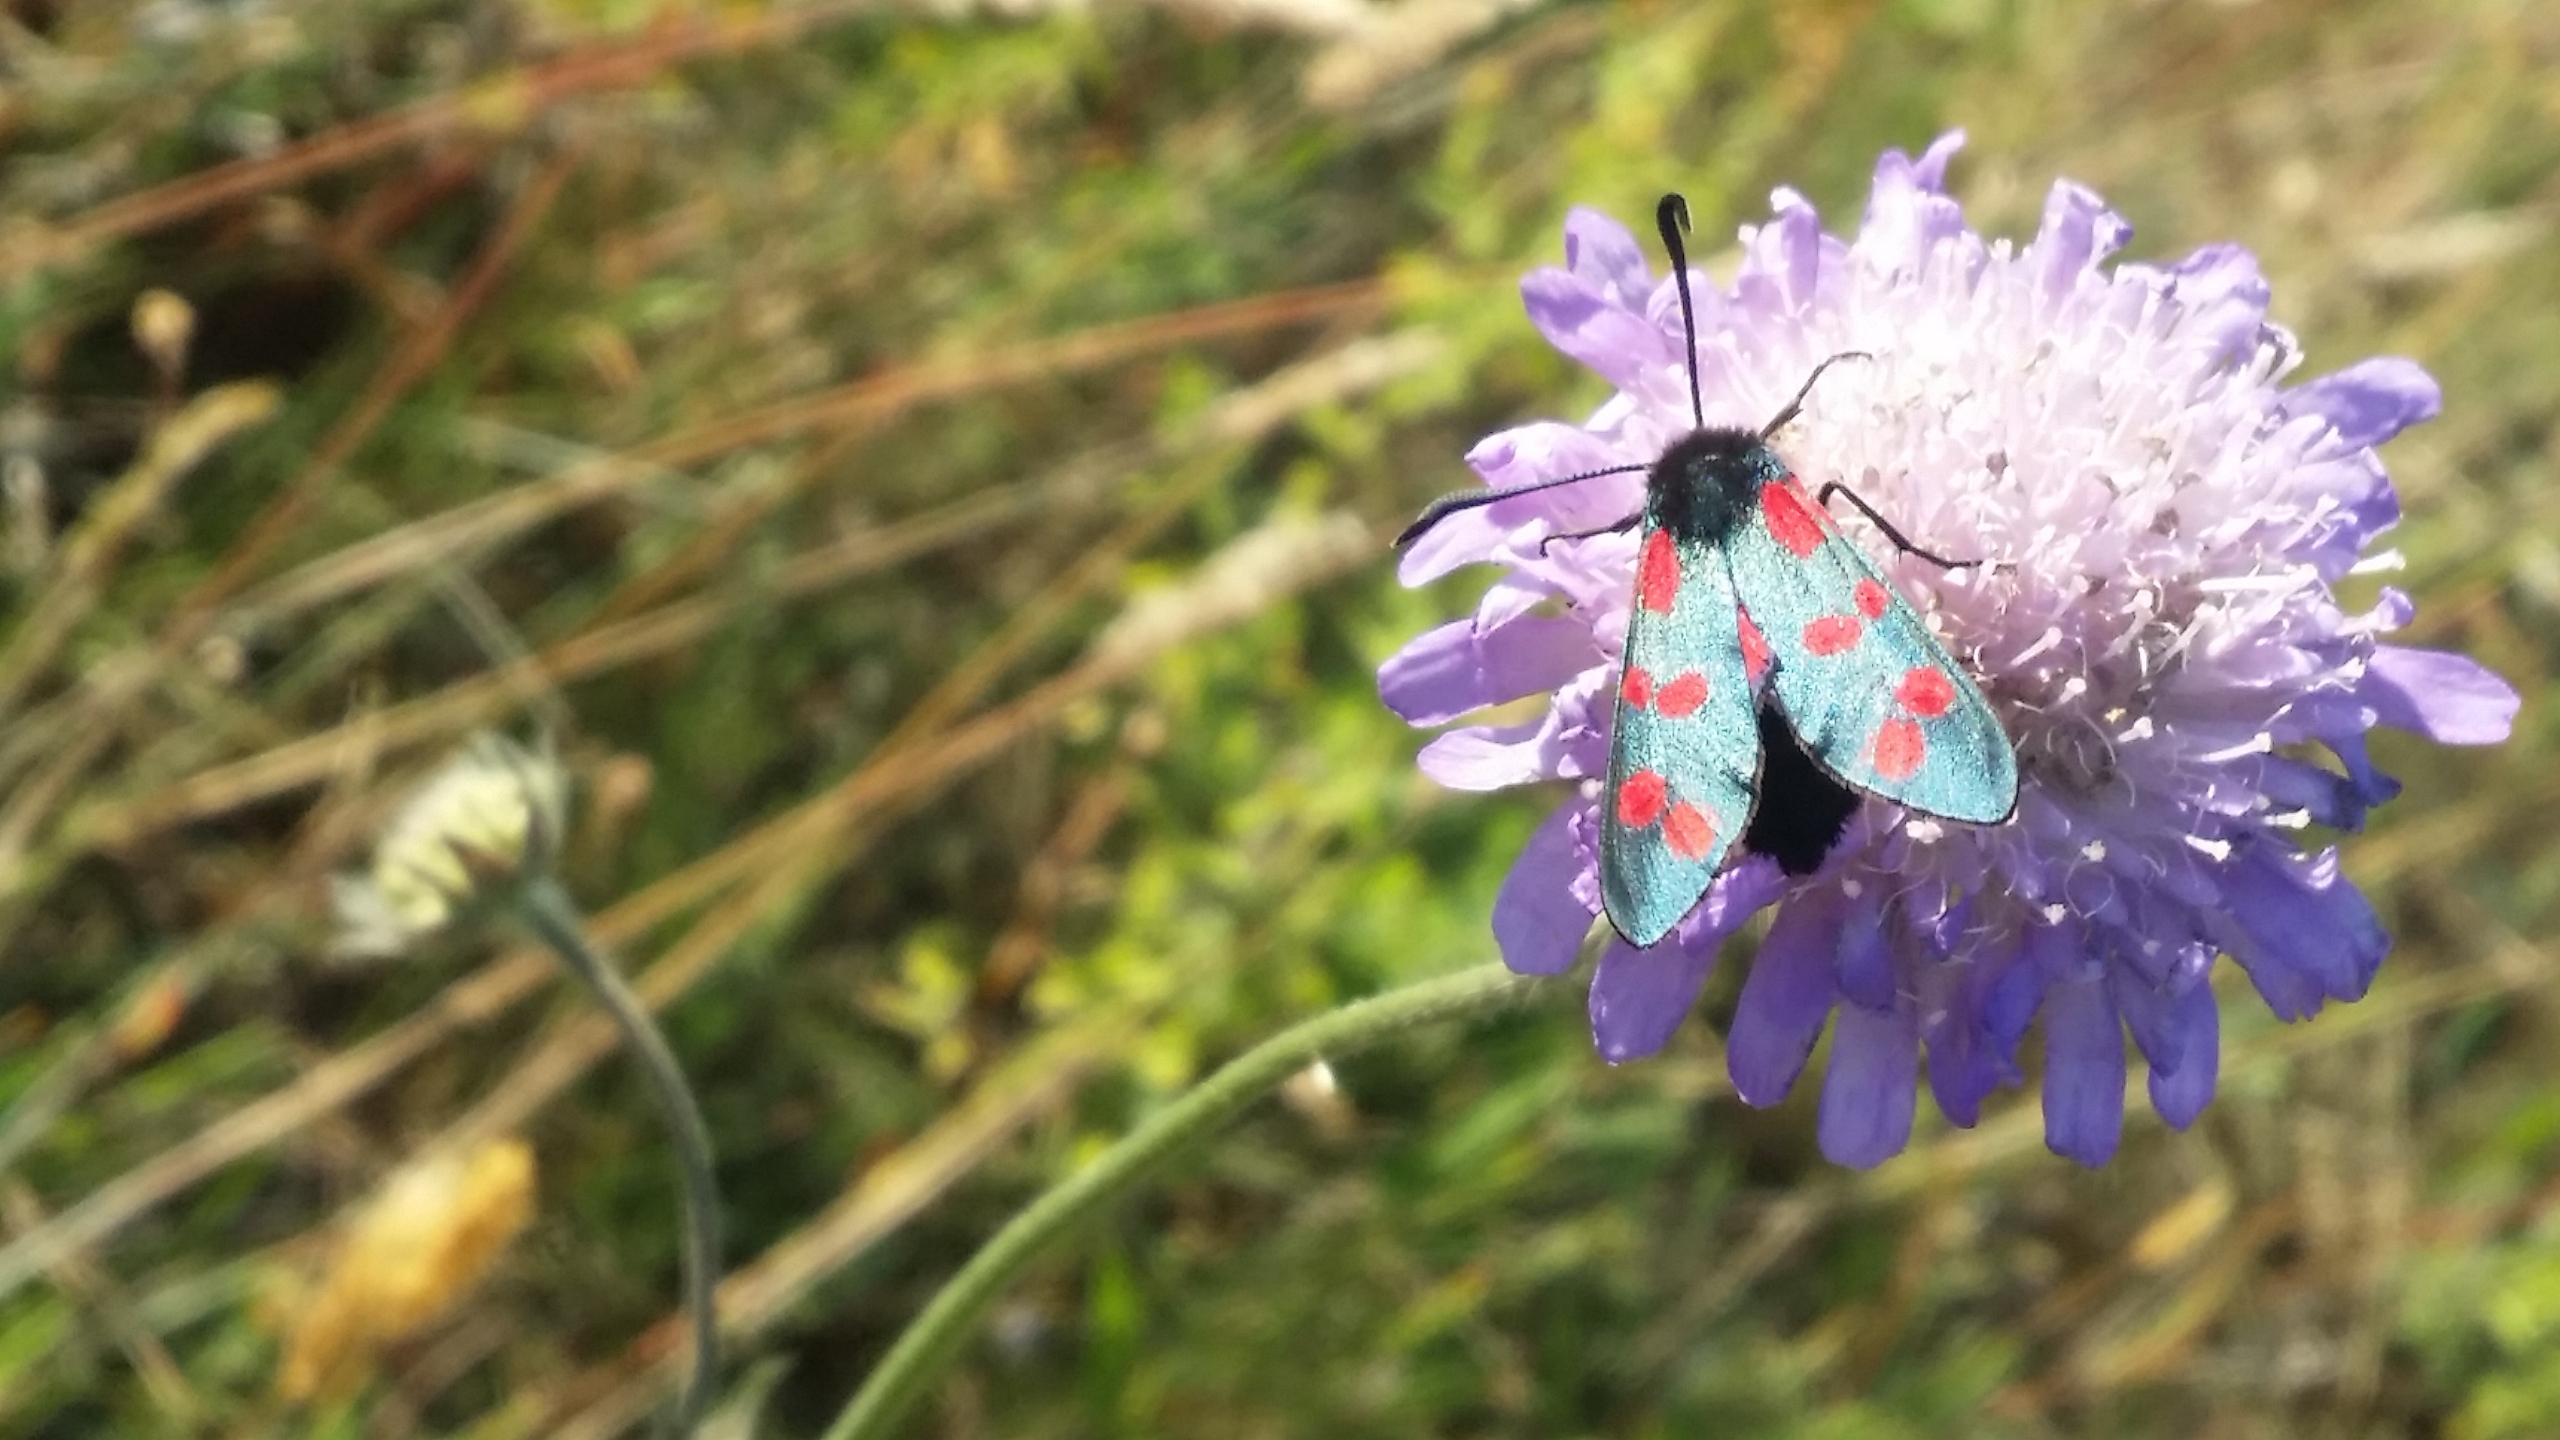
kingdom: Animalia
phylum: Arthropoda
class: Insecta
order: Lepidoptera
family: Zygaenidae
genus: Zygaena
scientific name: Zygaena filipendulae
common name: Seksplettet køllesværmer
